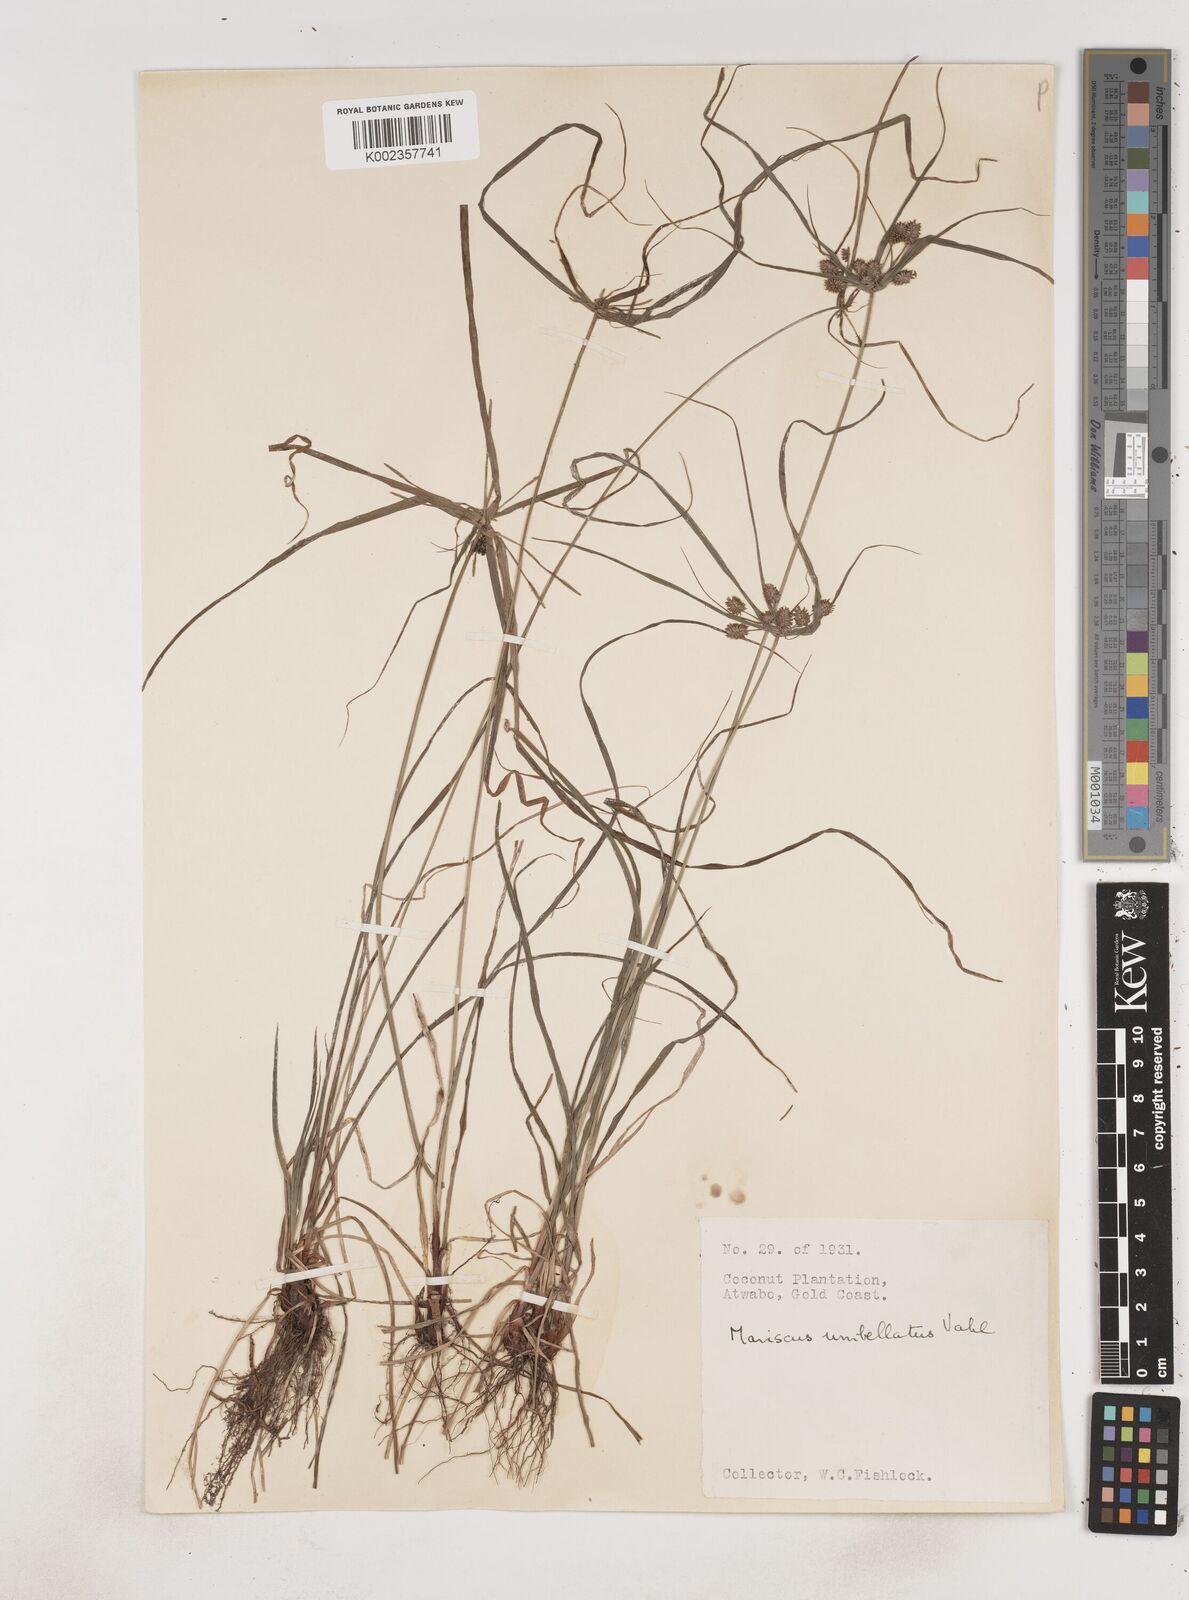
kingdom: Plantae
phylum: Tracheophyta
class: Liliopsida
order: Poales
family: Cyperaceae
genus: Cyperus
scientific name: Cyperus sublimis
